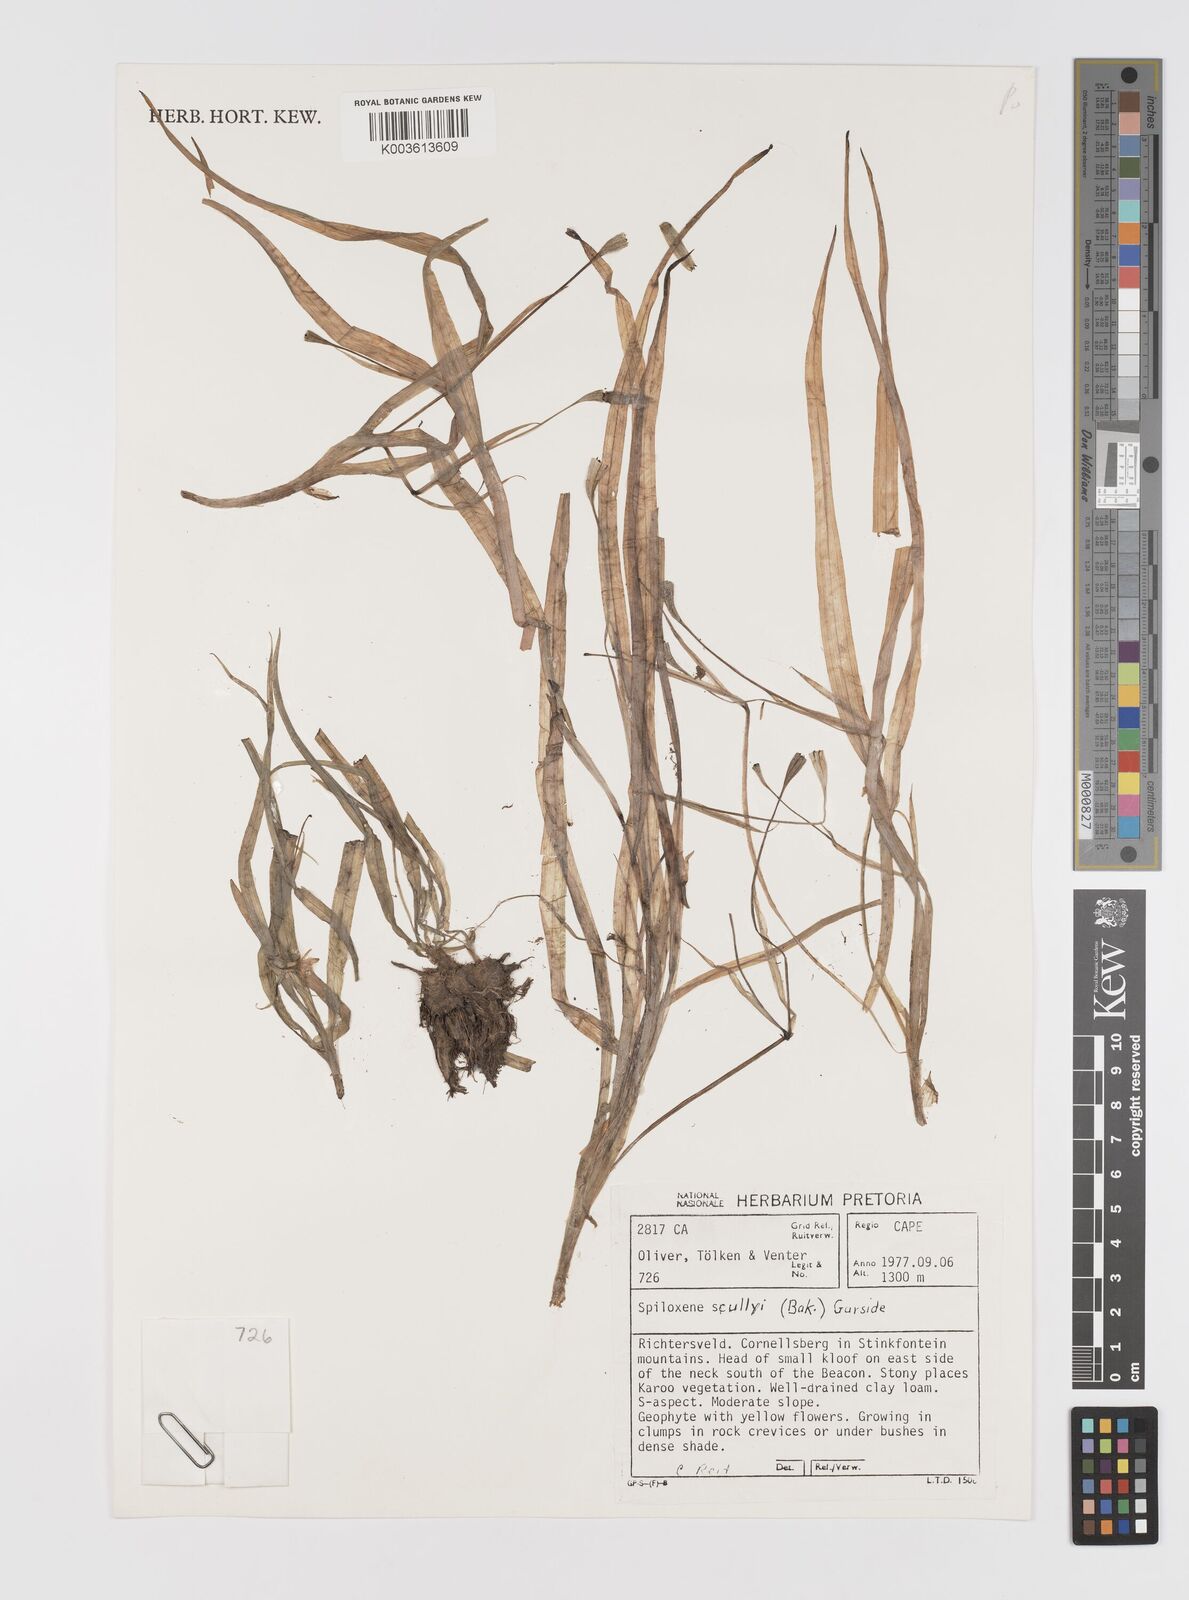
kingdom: Plantae
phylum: Tracheophyta
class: Liliopsida
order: Asparagales
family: Hypoxidaceae
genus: Pauridia
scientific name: Pauridia scullyi
